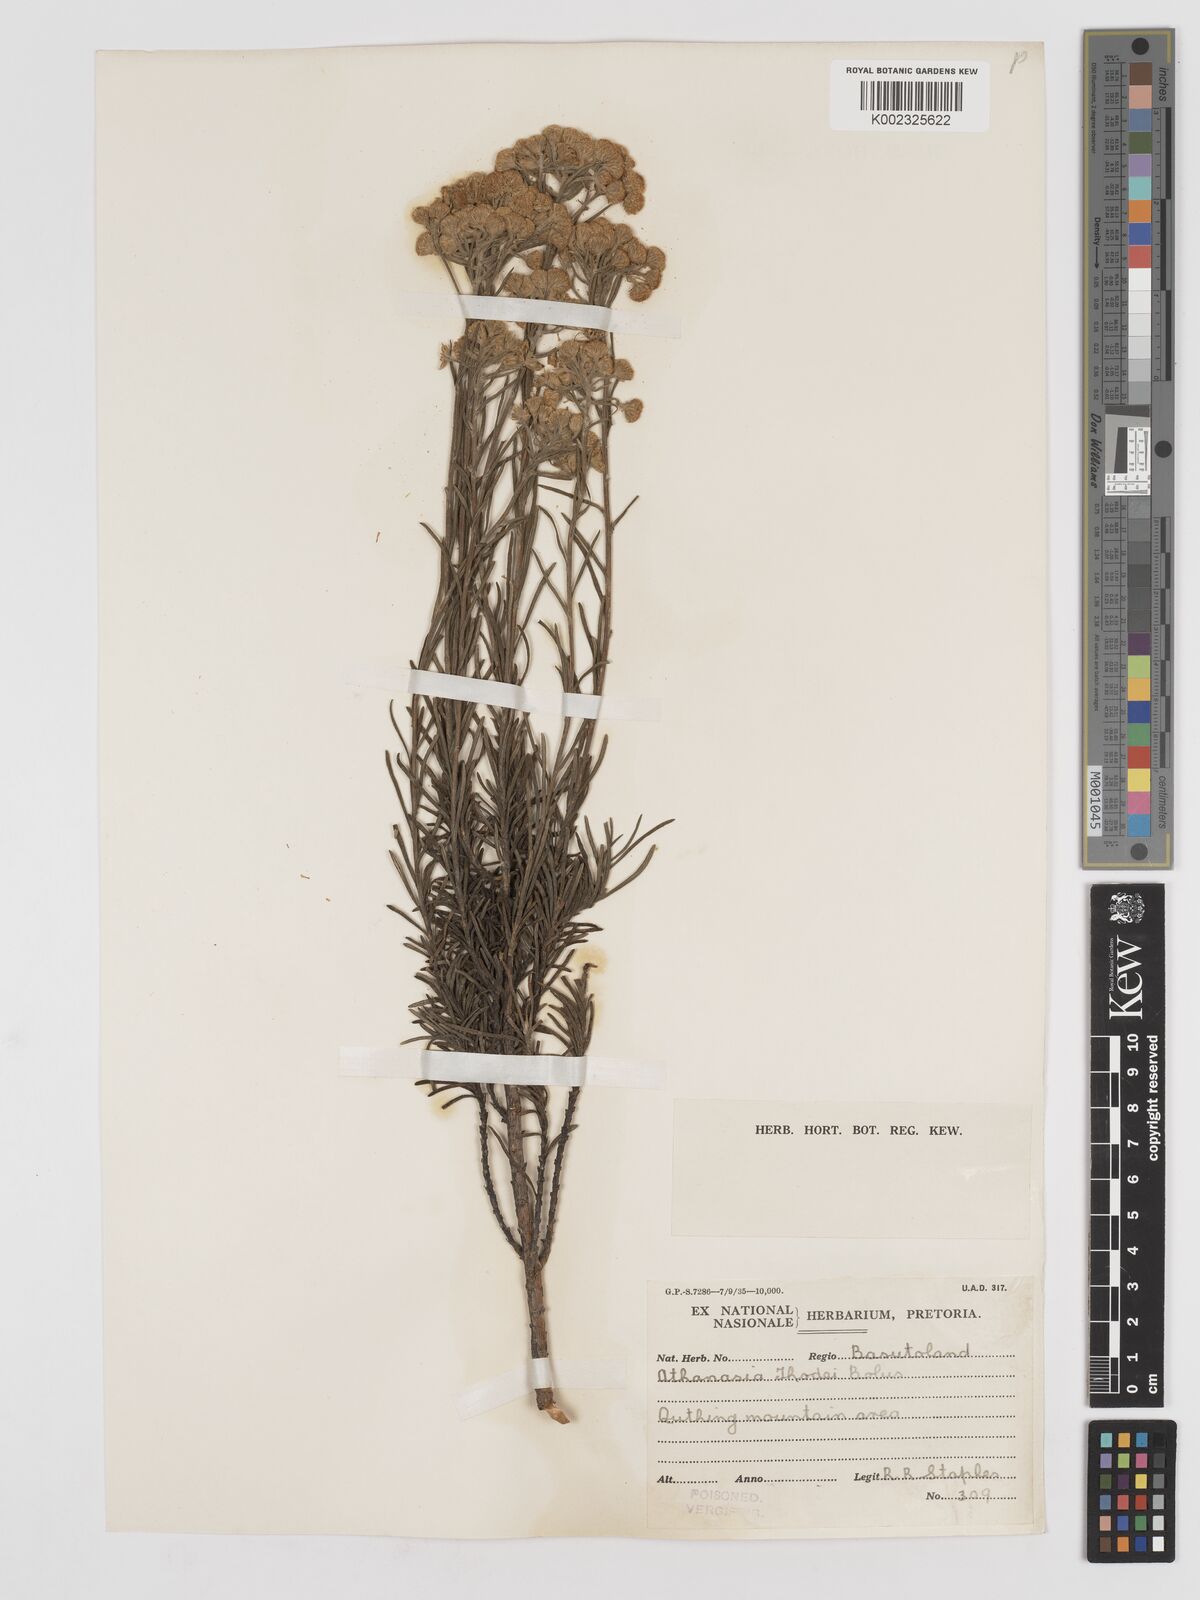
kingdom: Plantae
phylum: Tracheophyta
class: Magnoliopsida
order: Asterales
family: Asteraceae
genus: Inulanthera
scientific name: Inulanthera thodei
